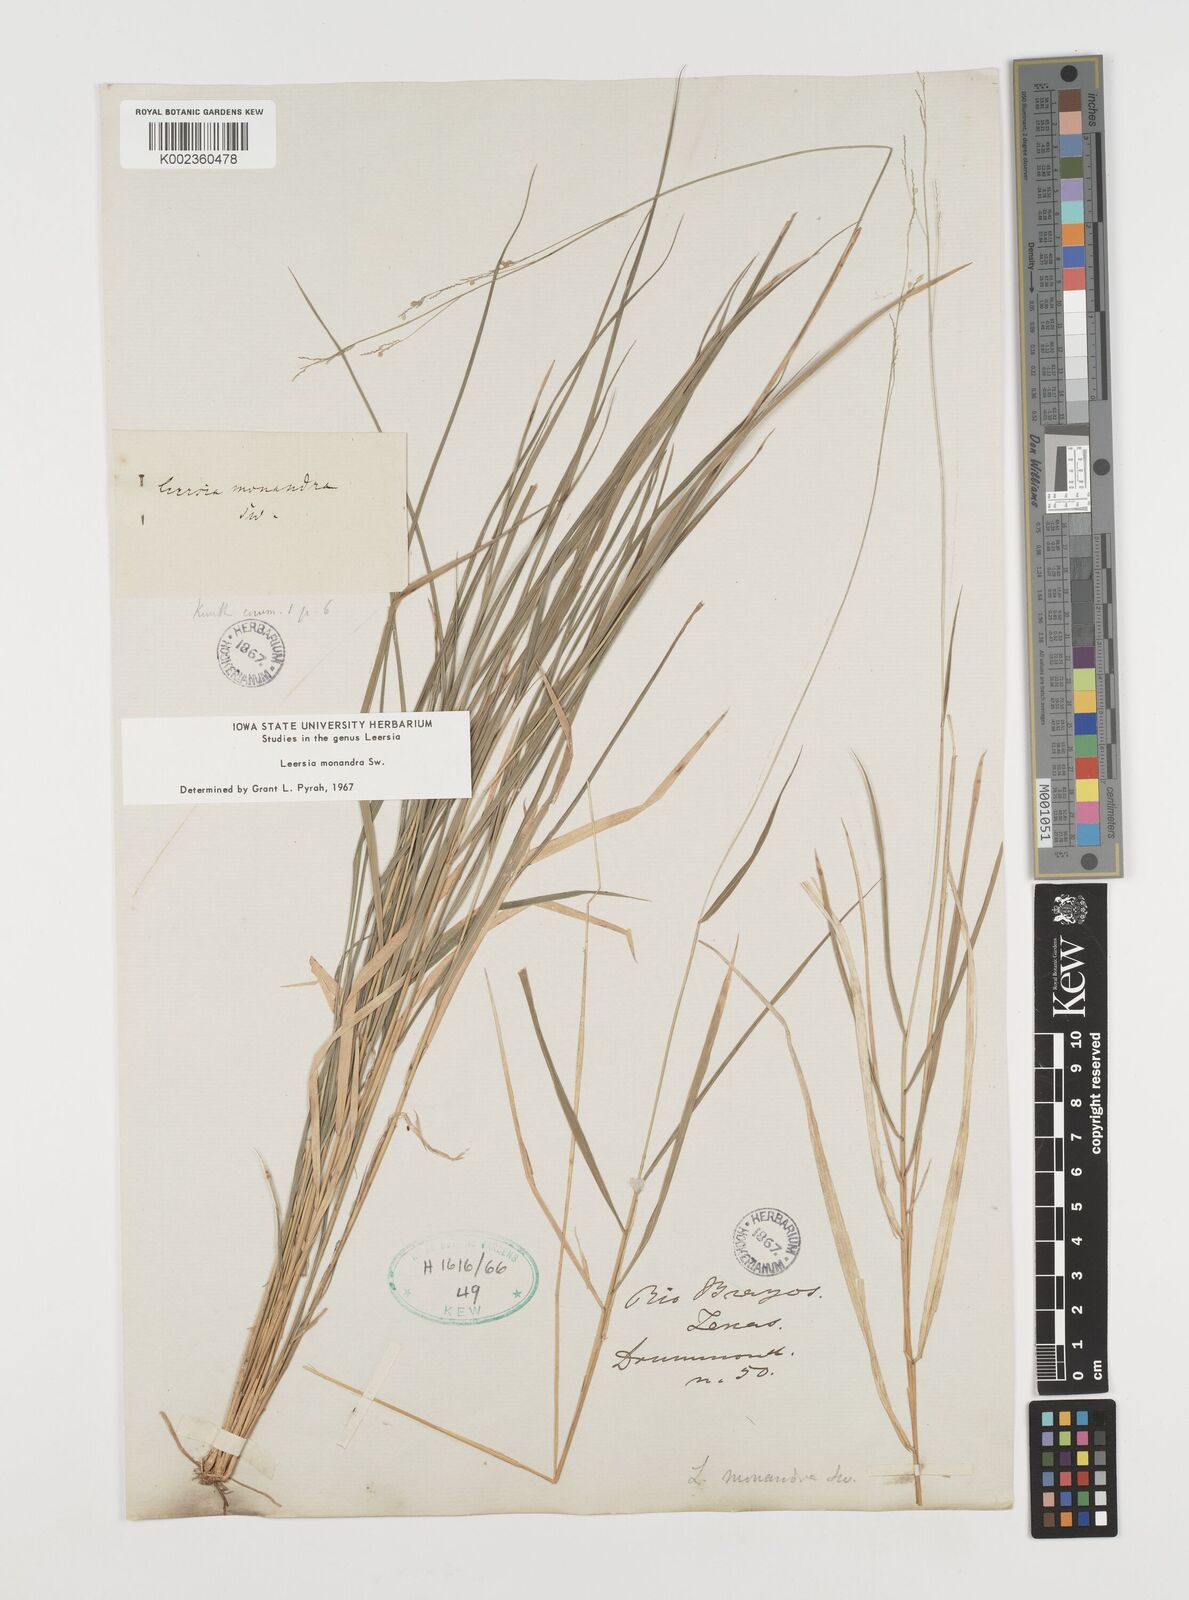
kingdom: Plantae
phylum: Tracheophyta
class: Liliopsida
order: Poales
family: Poaceae
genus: Leersia
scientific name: Leersia monandra
